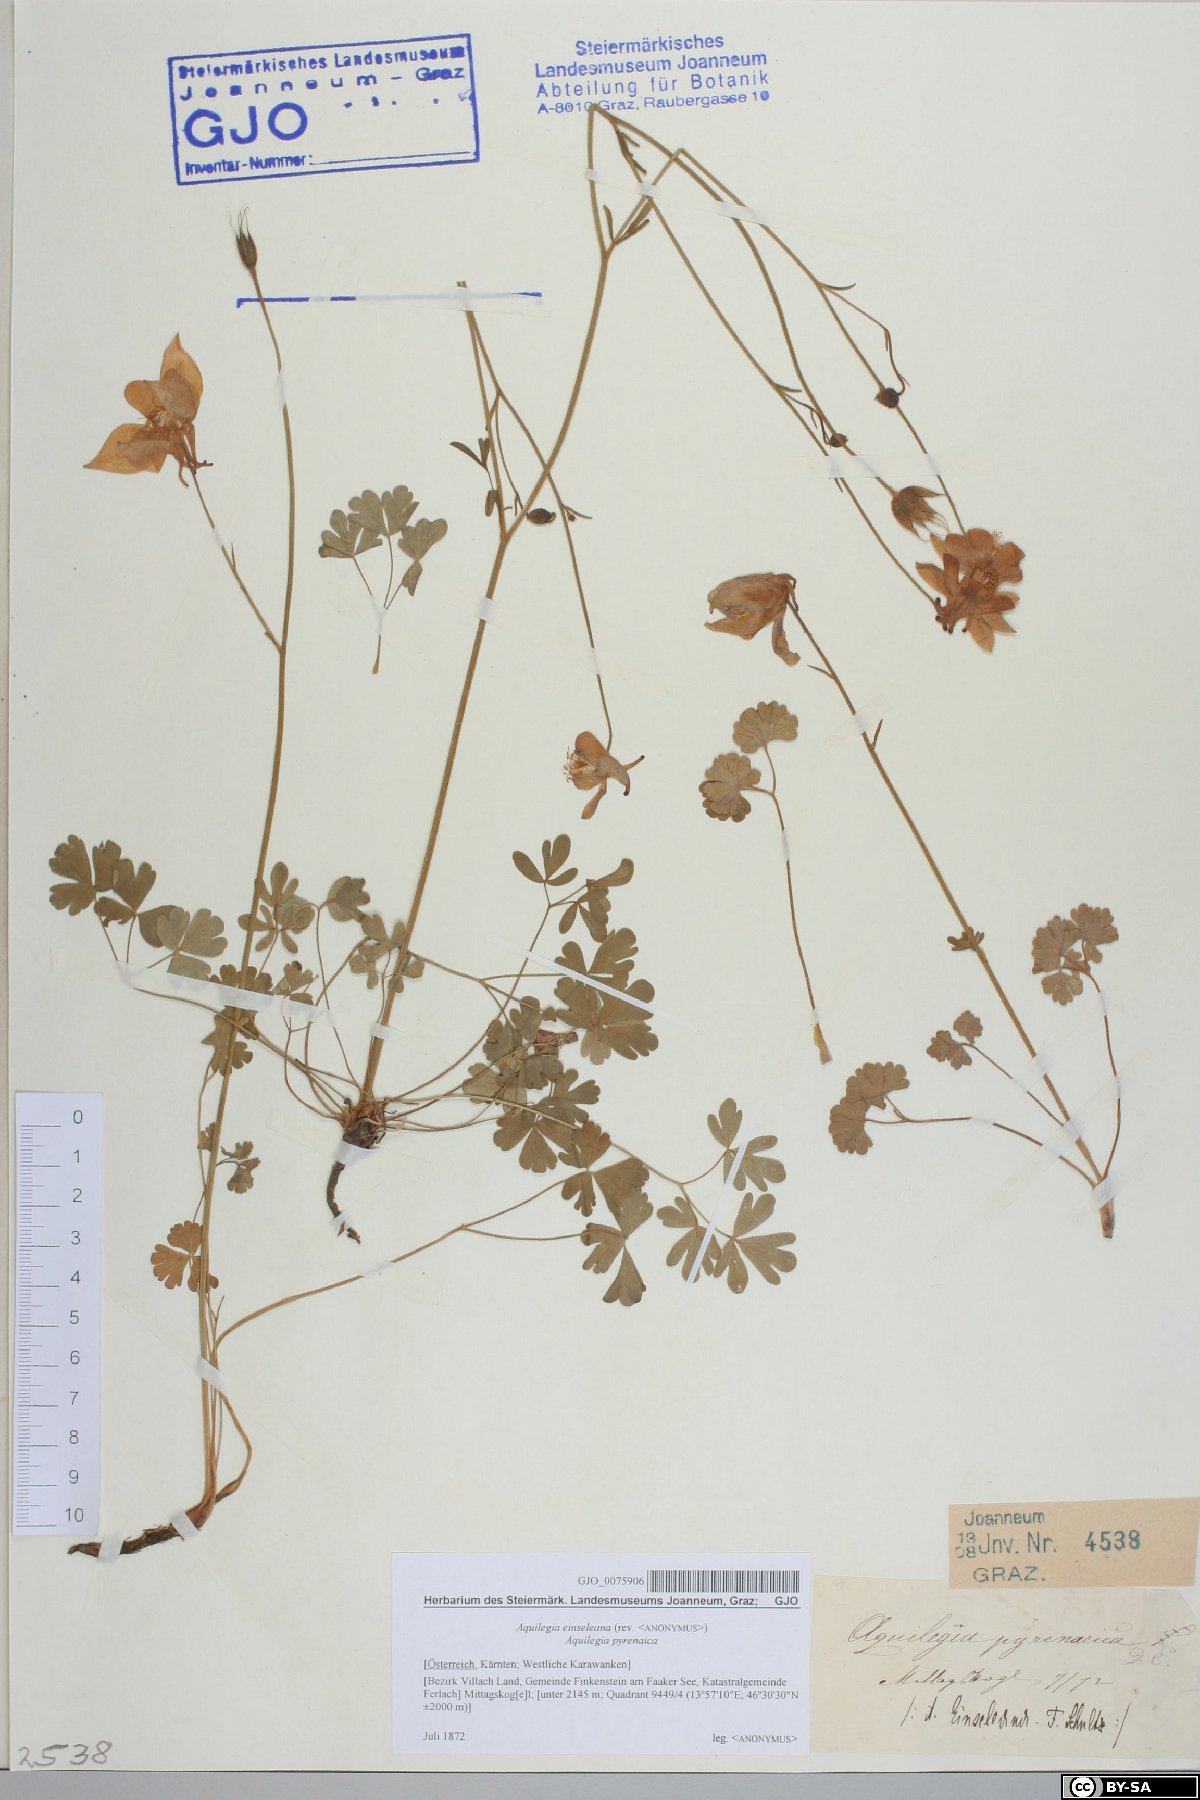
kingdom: Plantae
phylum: Tracheophyta
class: Magnoliopsida
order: Ranunculales
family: Ranunculaceae
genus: Aquilegia
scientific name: Aquilegia einseleana
